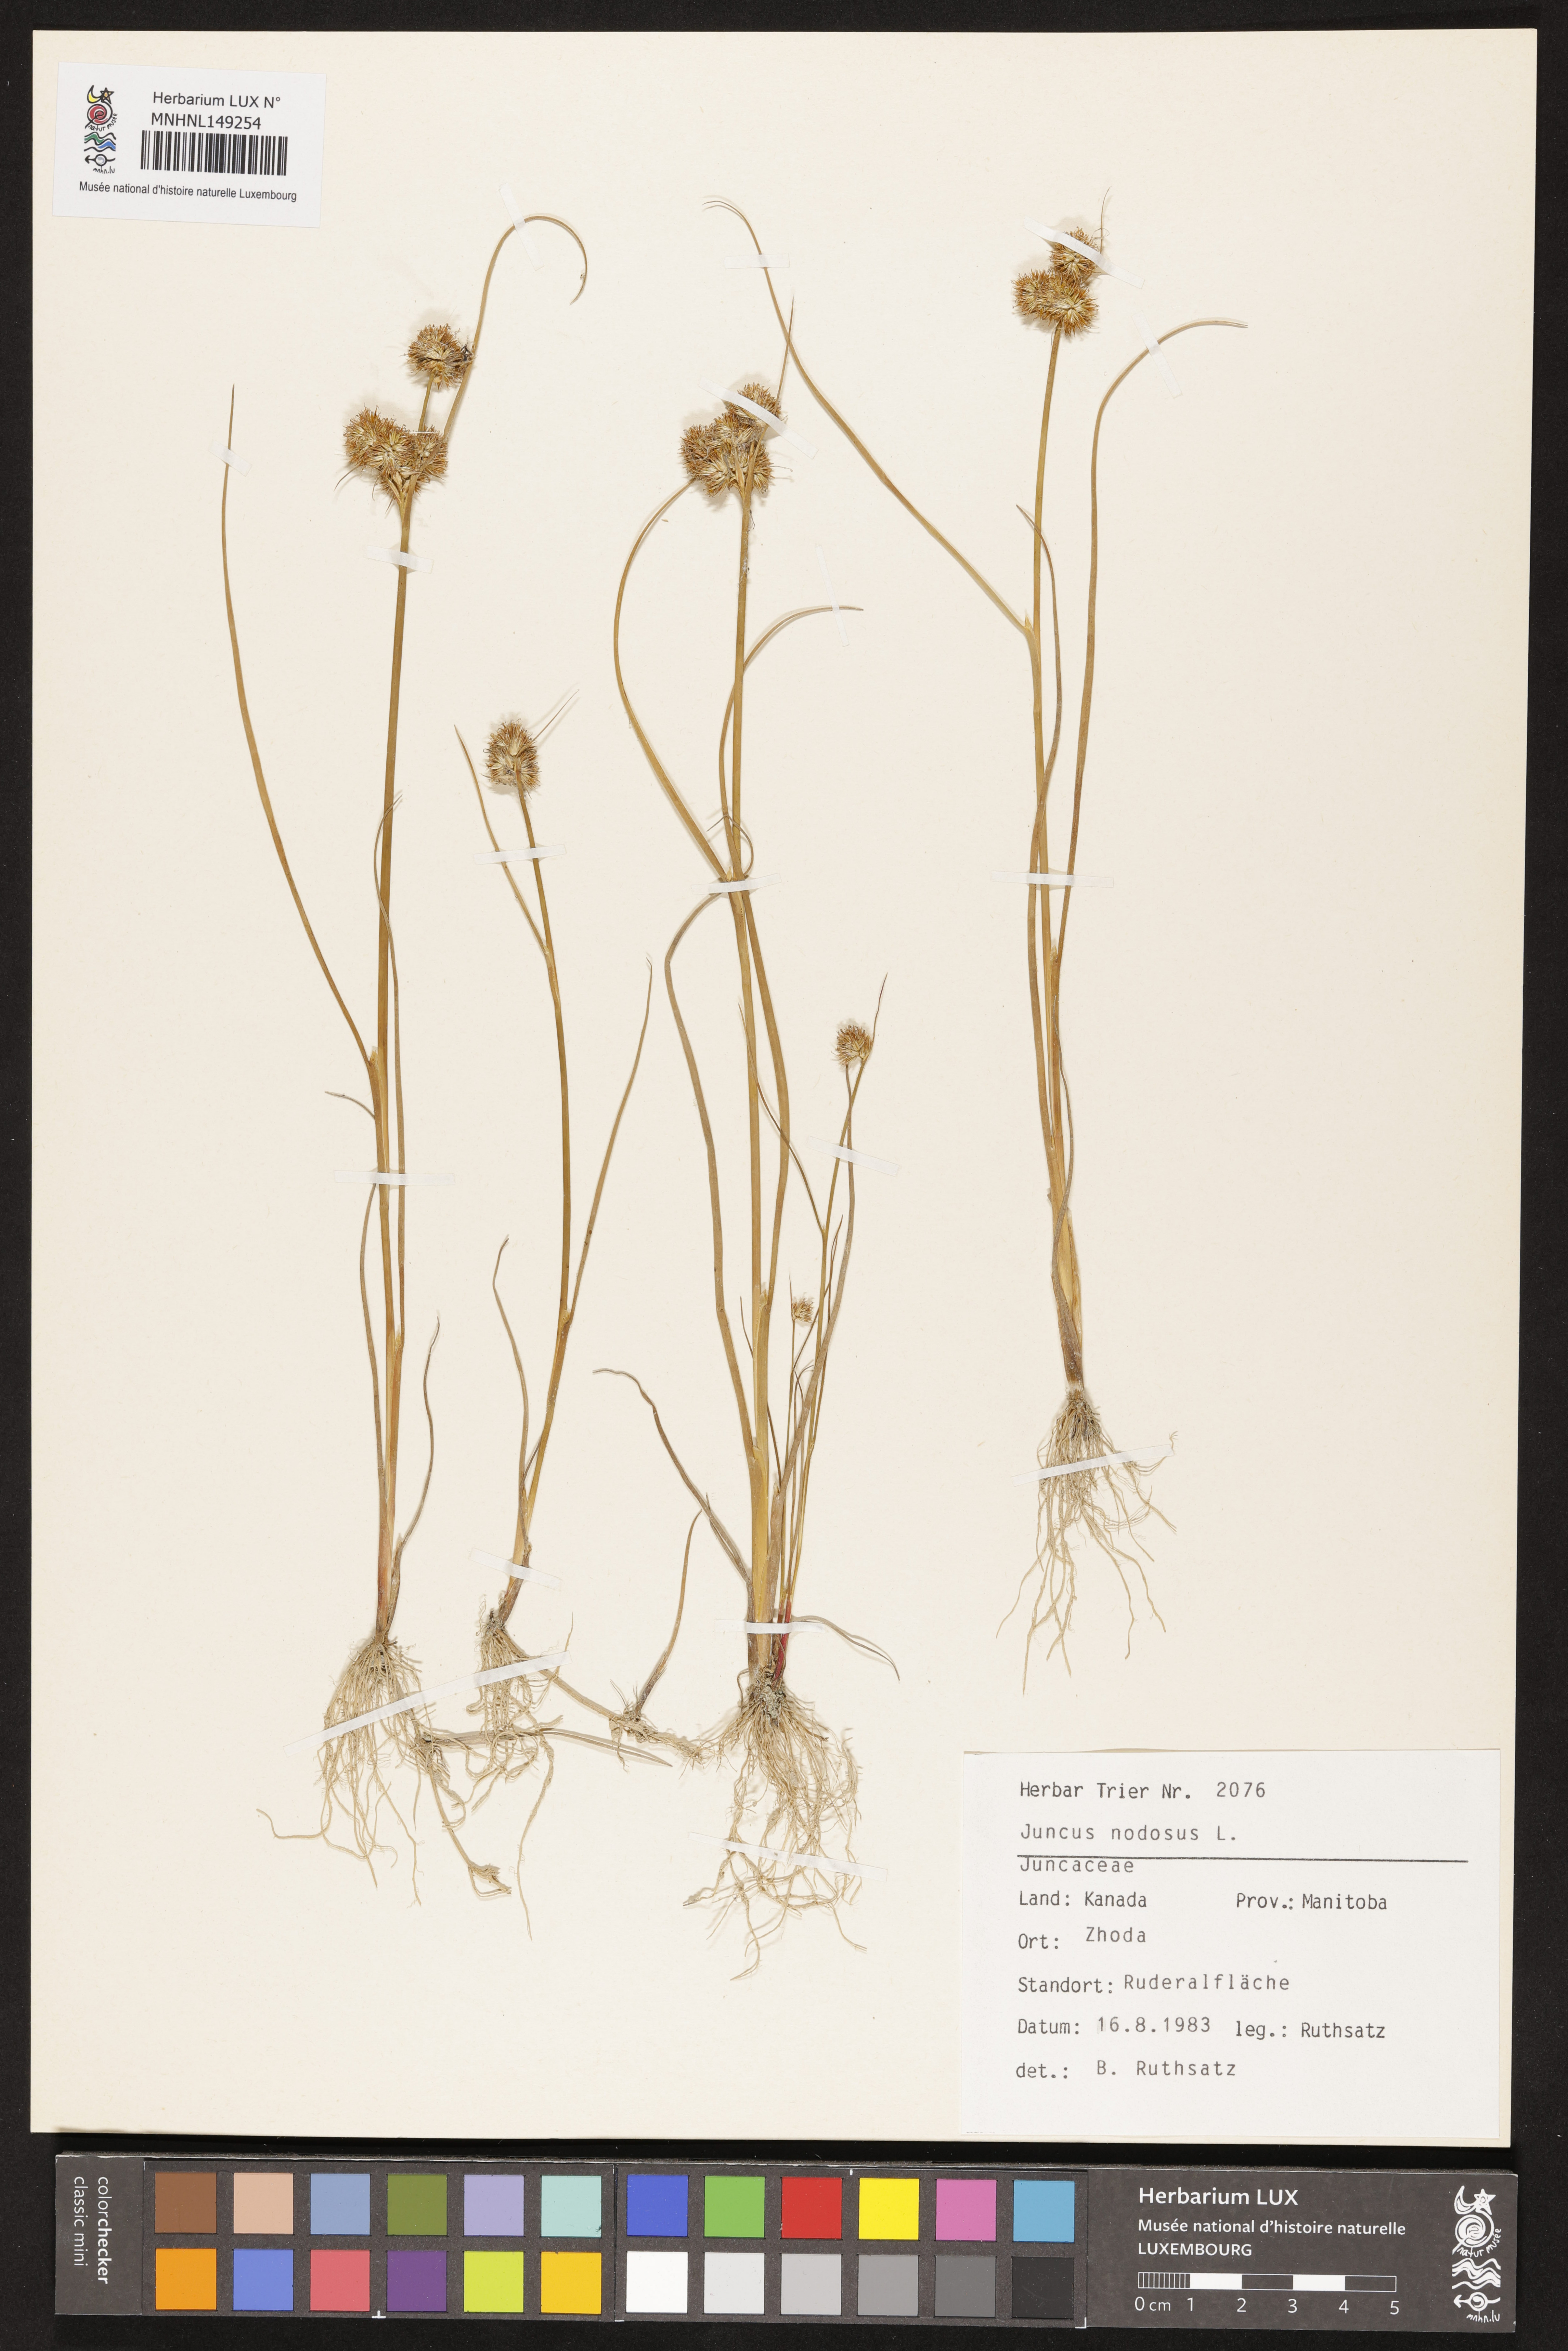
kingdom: Plantae
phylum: Tracheophyta
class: Liliopsida
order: Poales
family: Juncaceae
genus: Juncus
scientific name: Juncus nodosus
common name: Knotted rush
